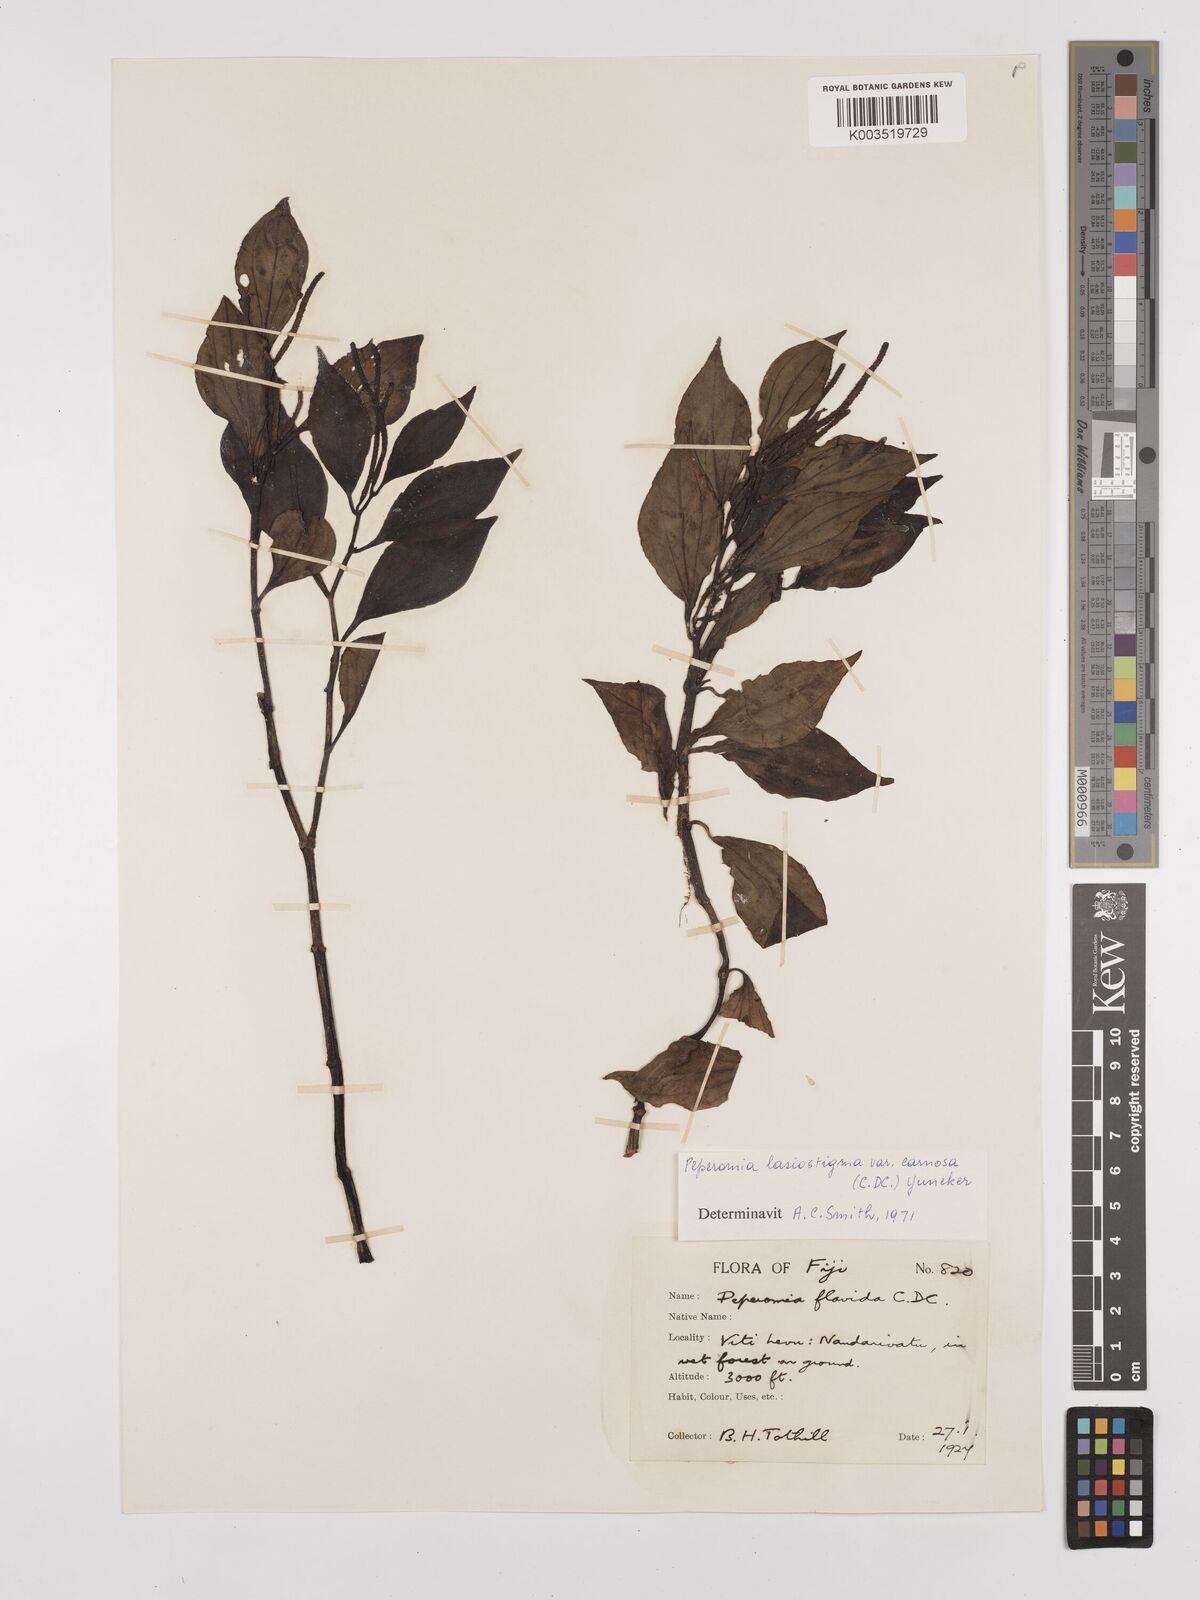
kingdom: Plantae
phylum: Tracheophyta
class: Magnoliopsida
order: Piperales
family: Piperaceae
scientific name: Piperaceae
